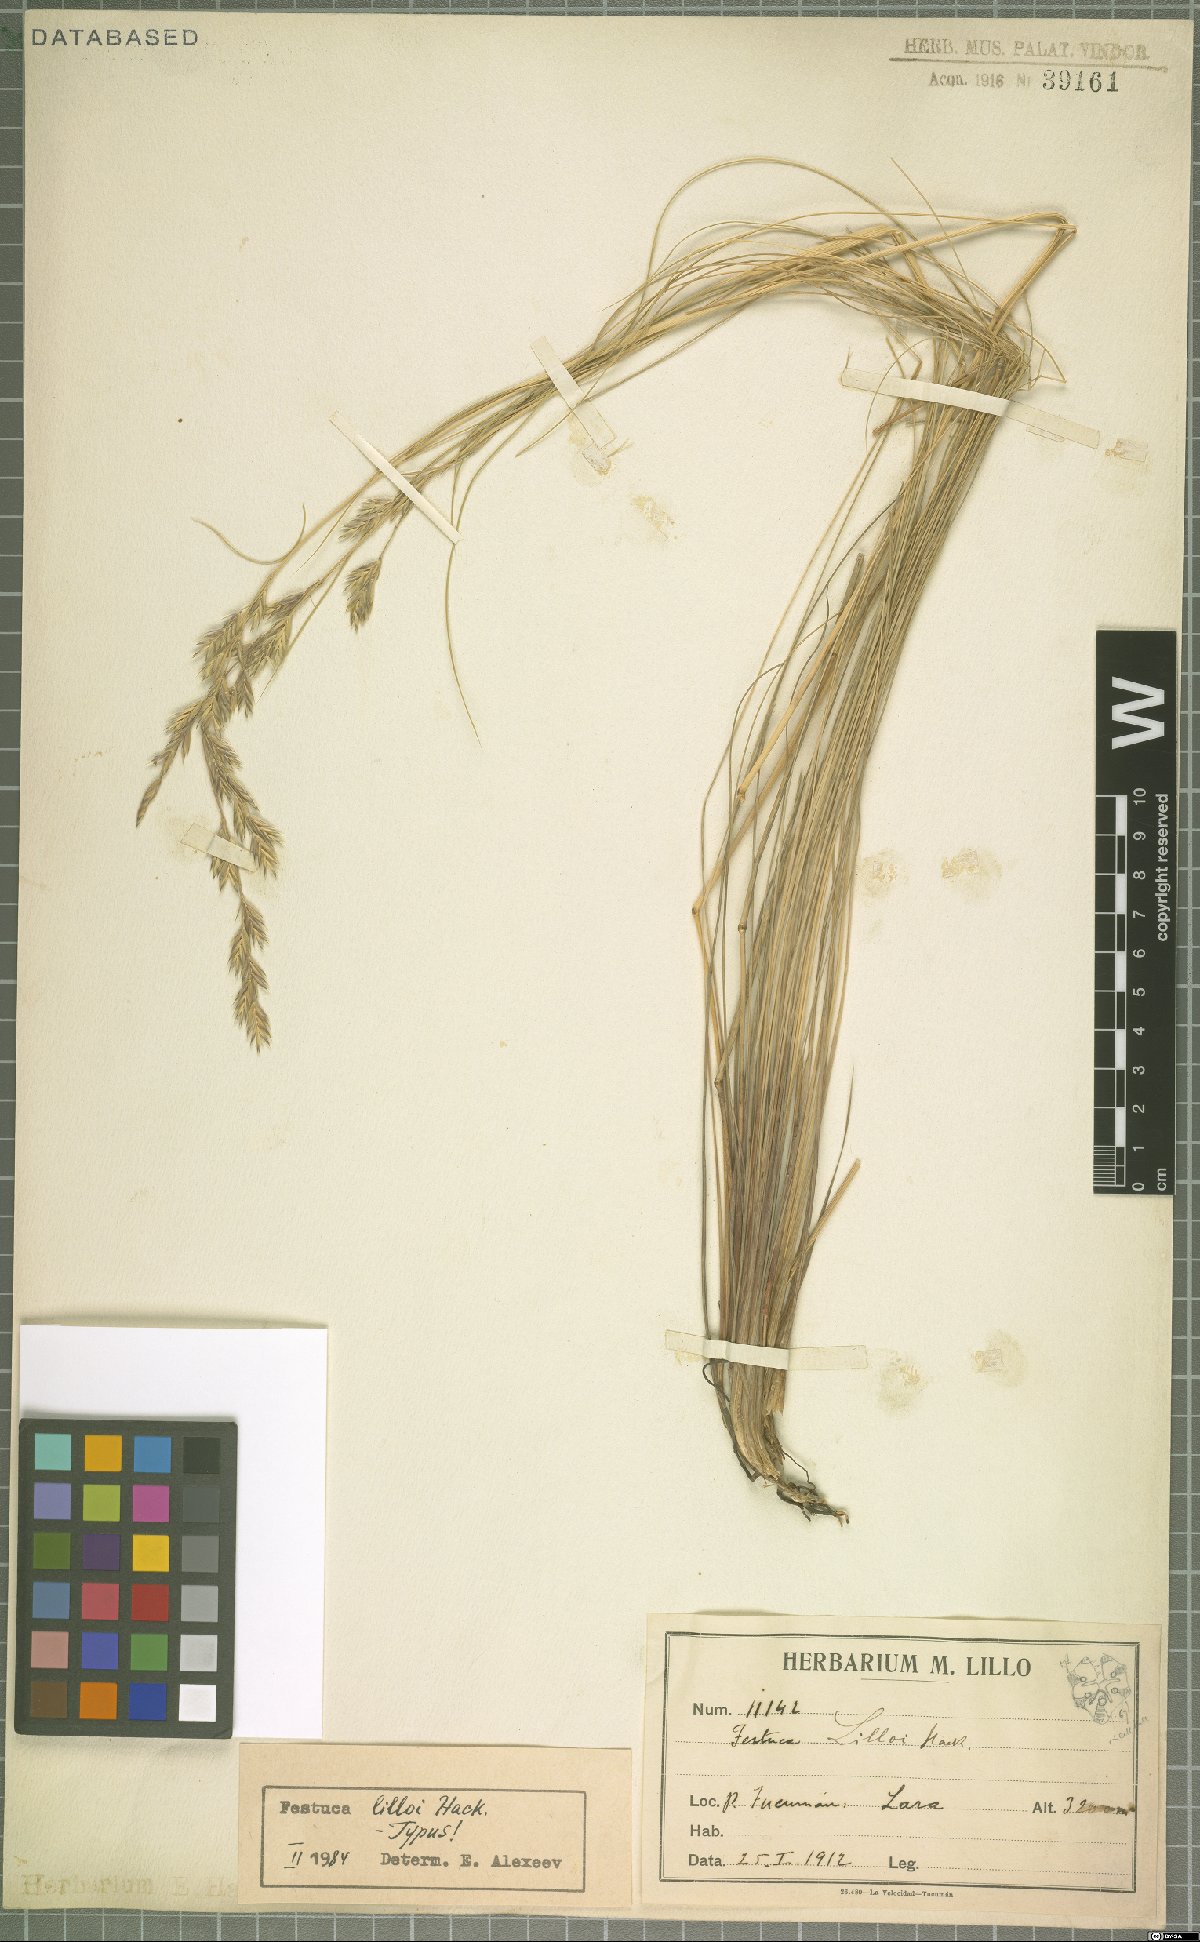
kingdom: Plantae
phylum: Tracheophyta
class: Liliopsida
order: Poales
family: Poaceae
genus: Festuca
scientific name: Festuca lilloi
